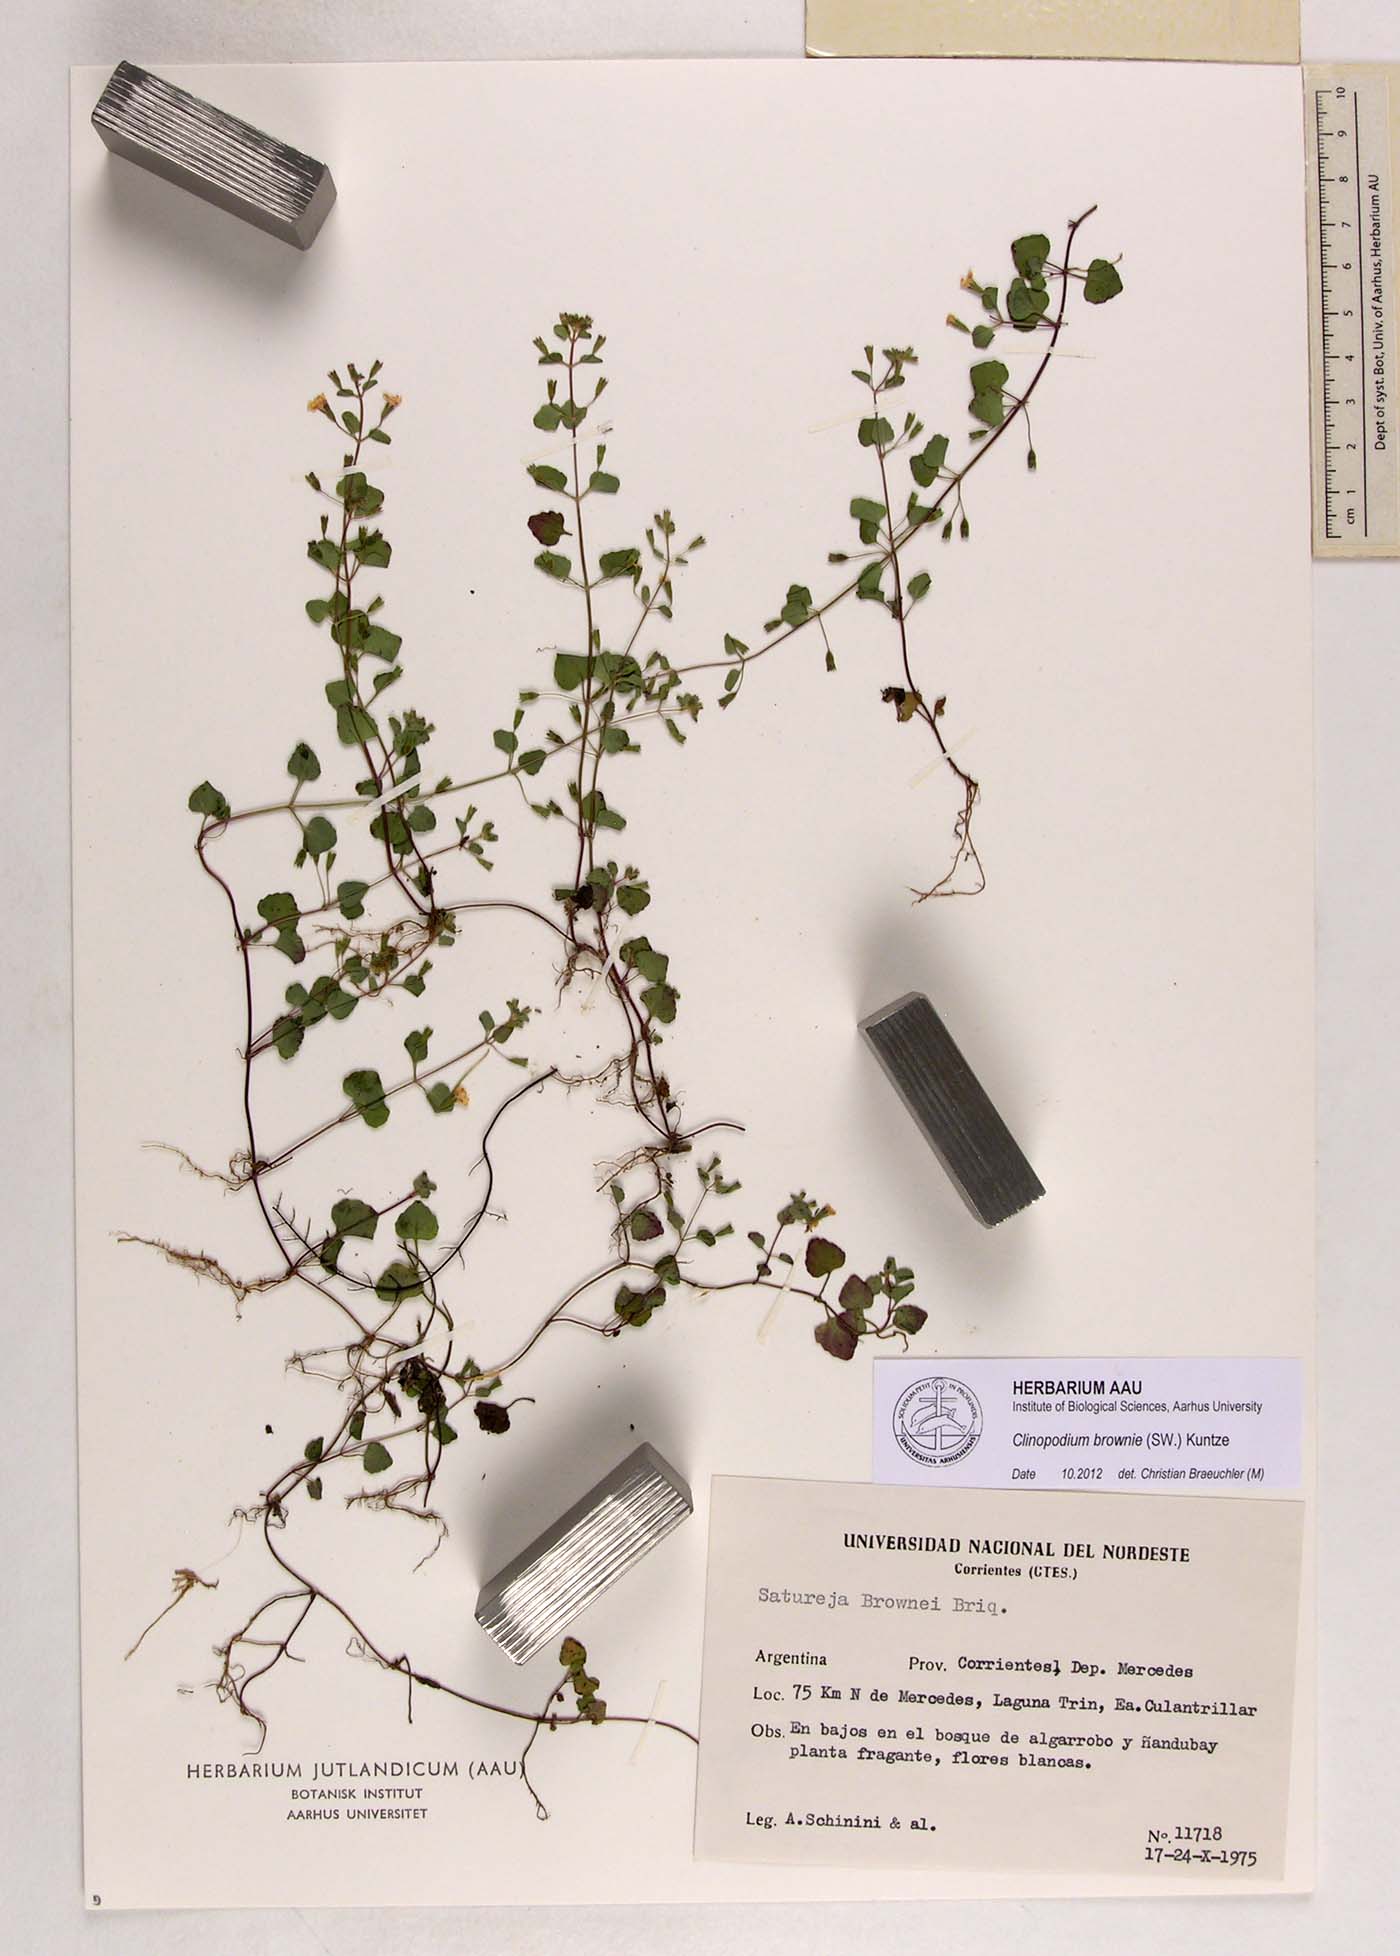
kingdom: Plantae
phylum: Tracheophyta
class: Magnoliopsida
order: Lamiales
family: Lamiaceae
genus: Clinopodium
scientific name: Clinopodium brownei
